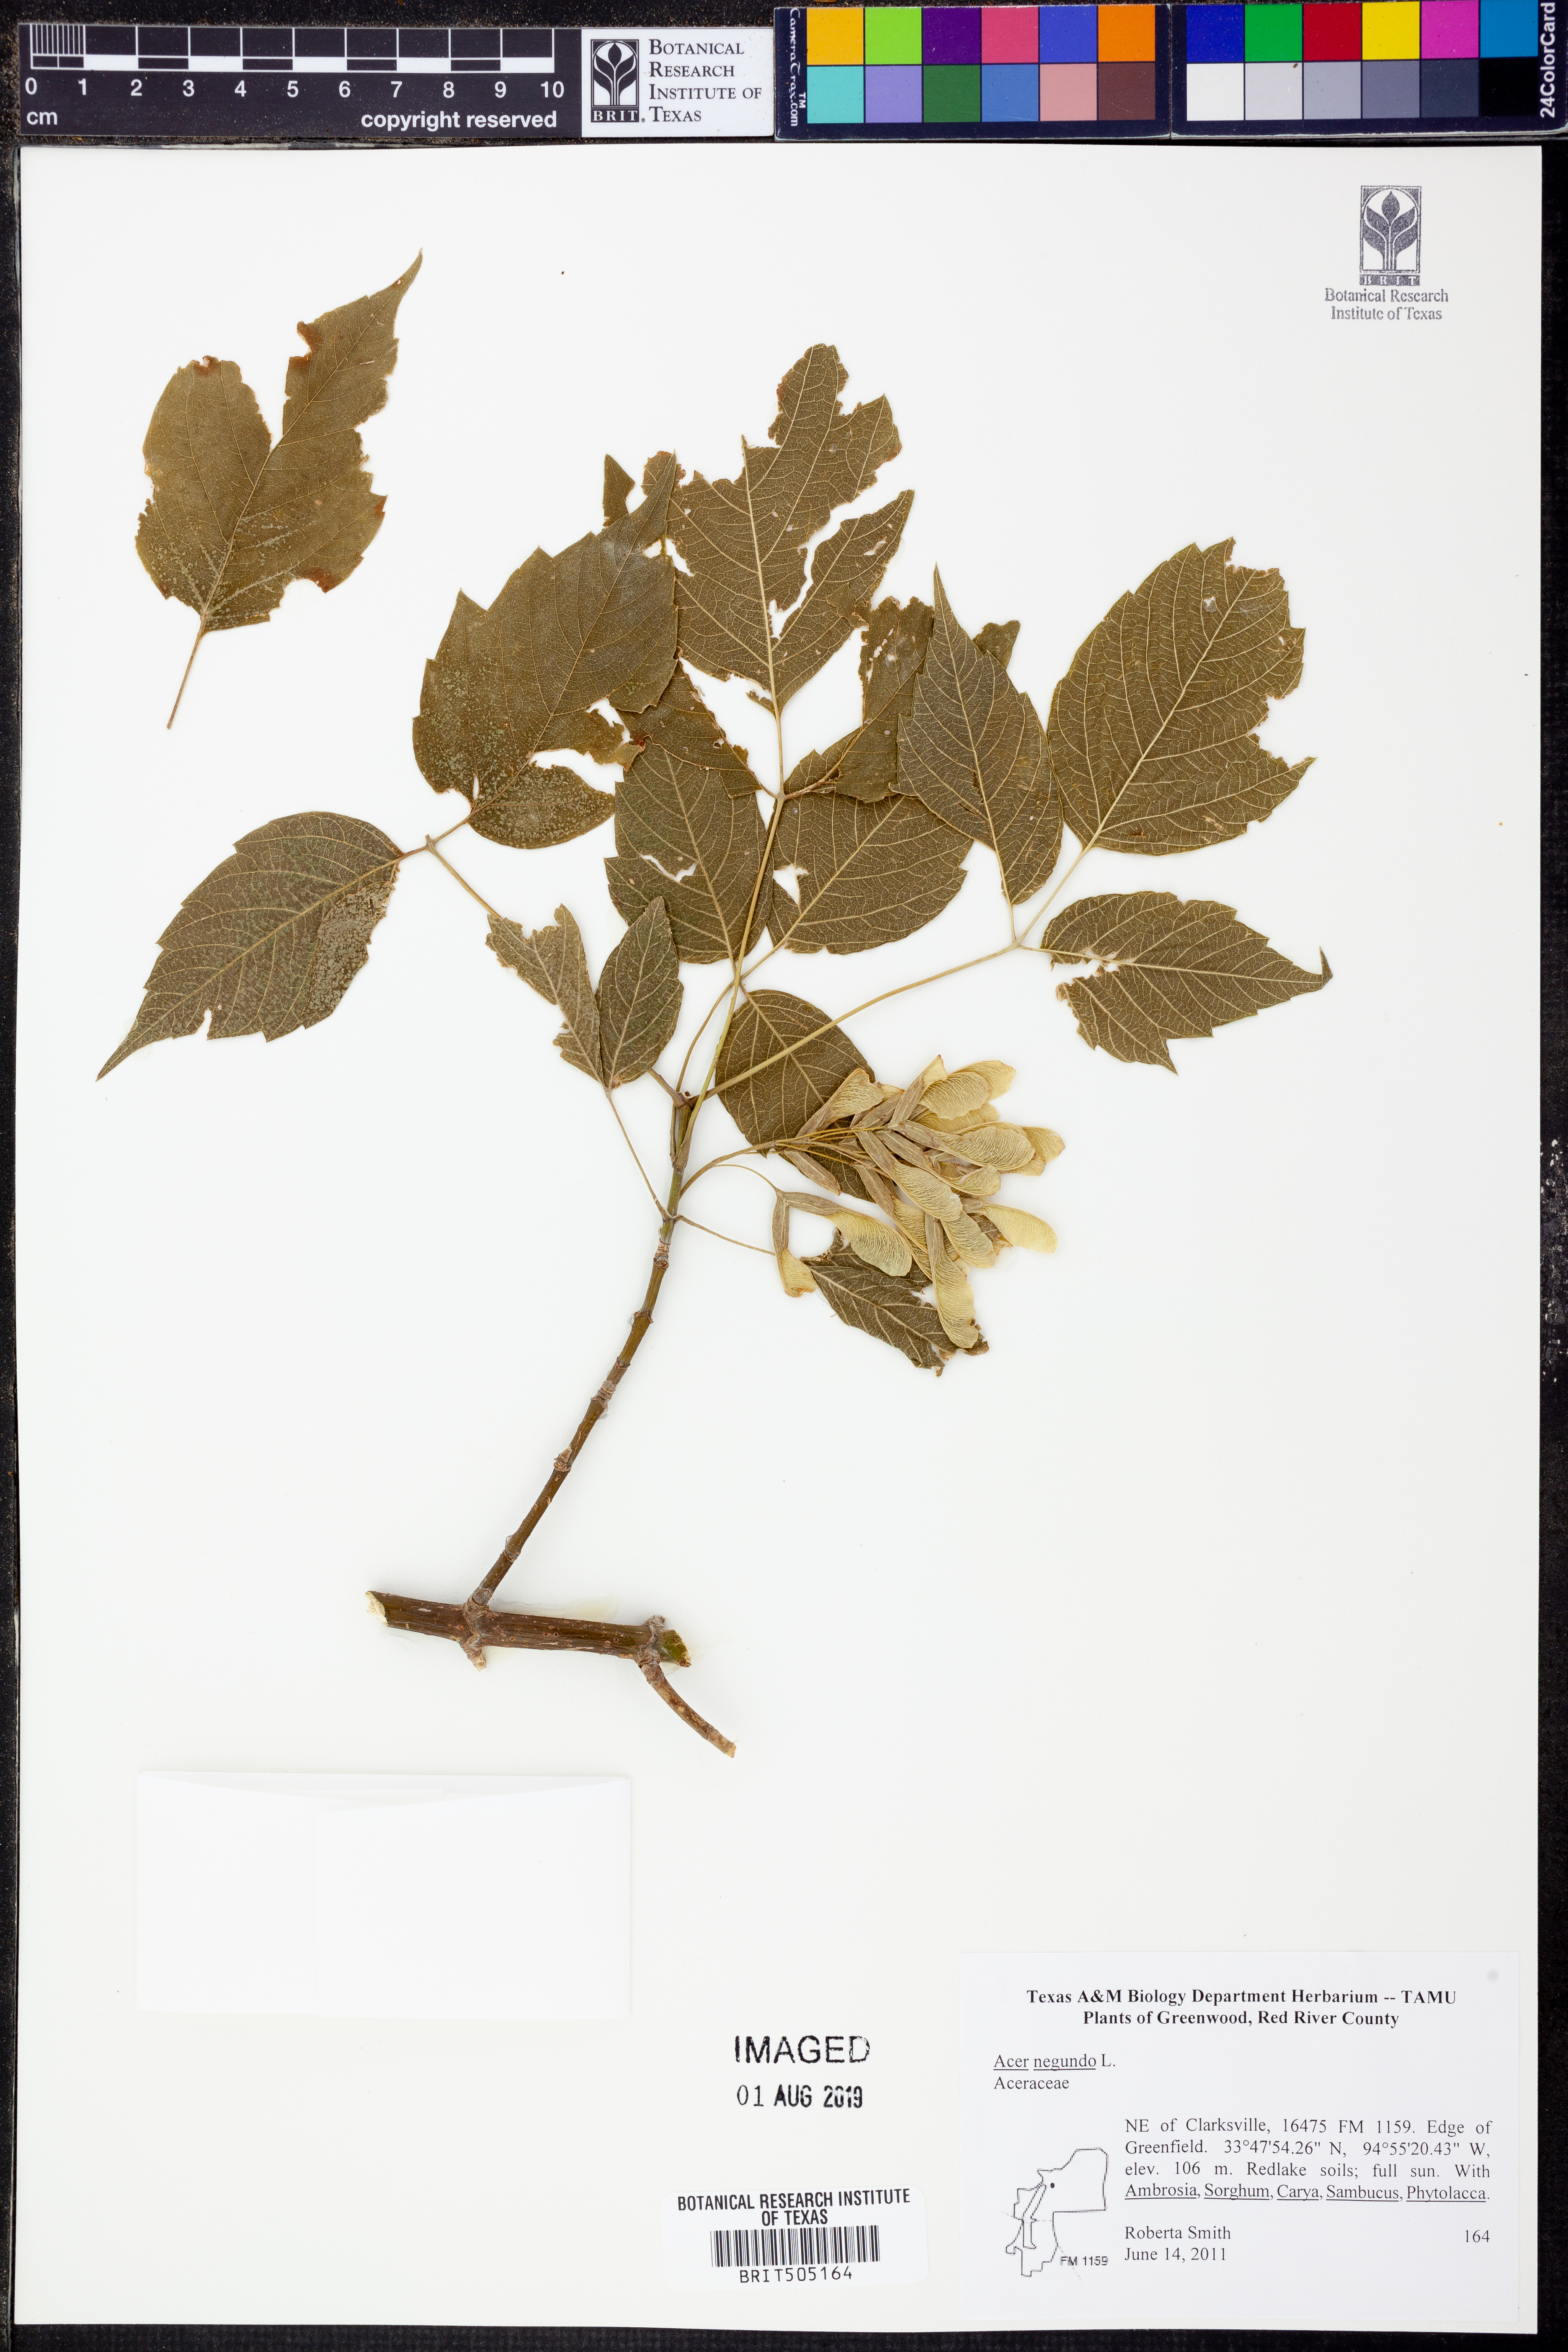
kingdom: Plantae
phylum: Tracheophyta
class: Magnoliopsida
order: Sapindales
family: Sapindaceae
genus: Acer
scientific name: Acer leucoderme
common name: Chalk maple
